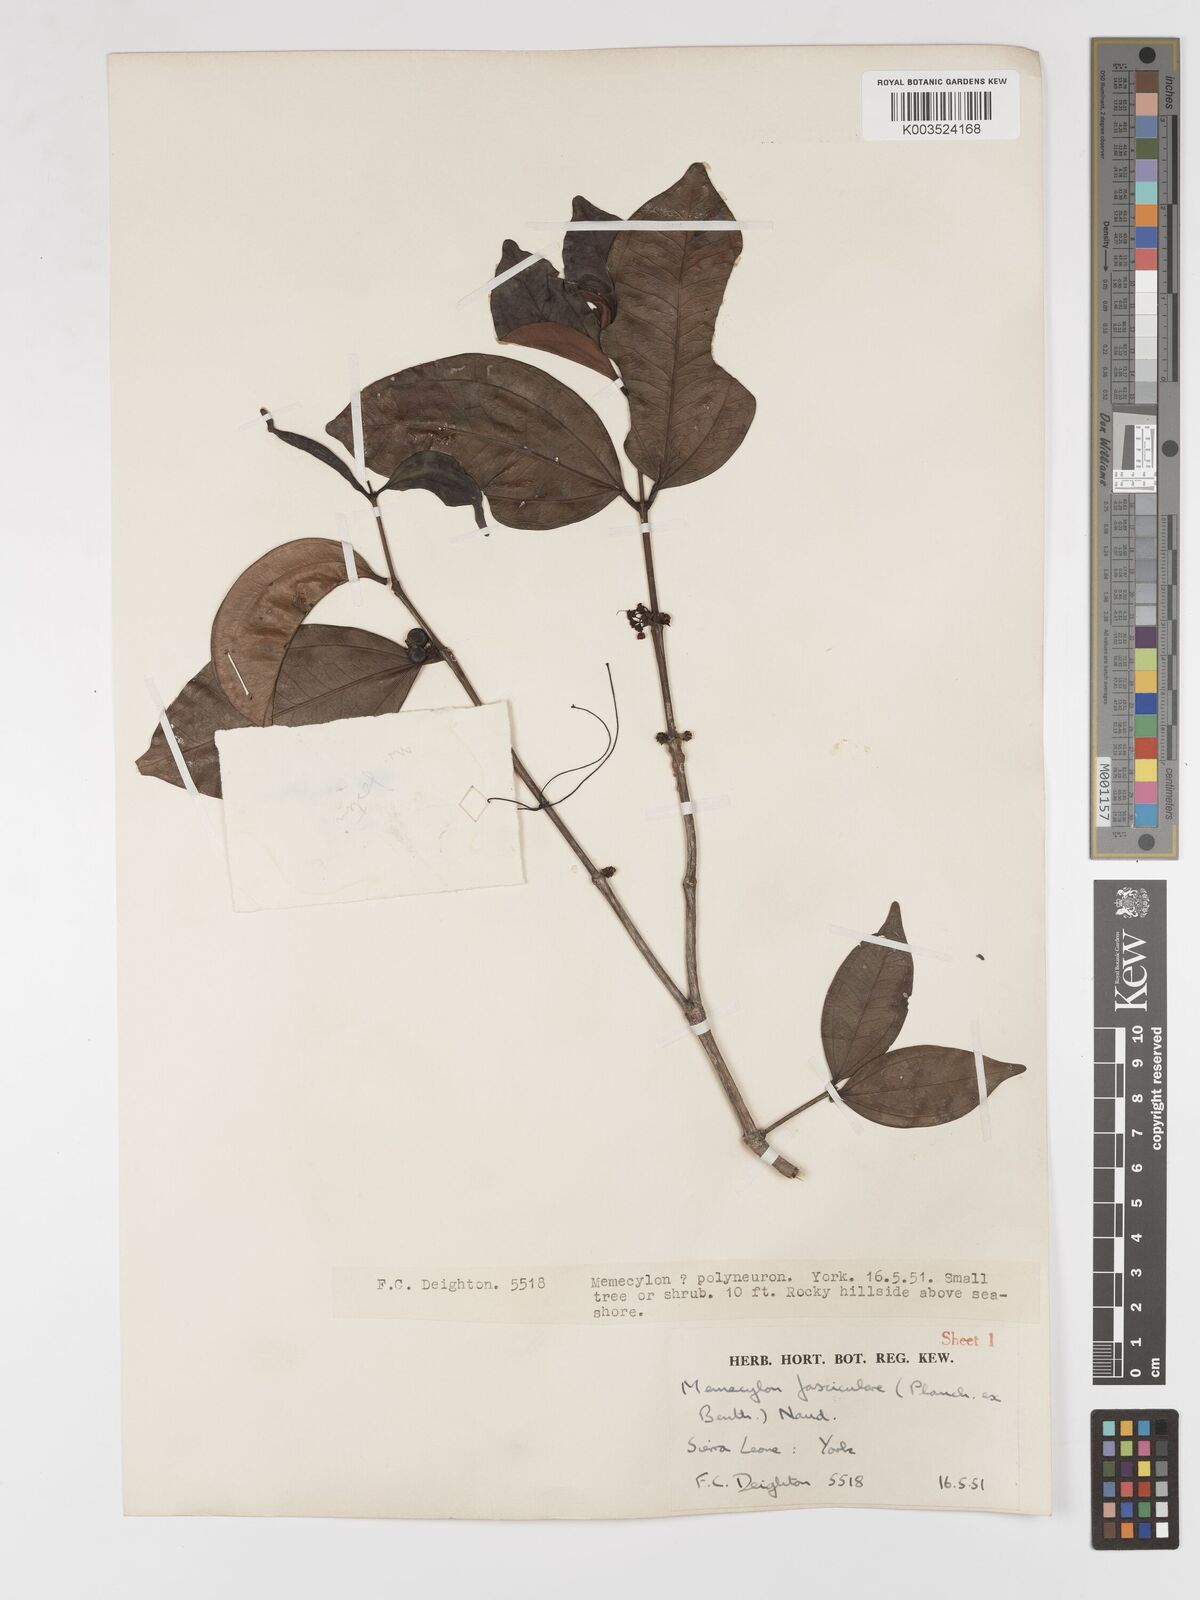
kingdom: Plantae
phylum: Tracheophyta
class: Magnoliopsida
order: Myrtales
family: Melastomataceae
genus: Warneckea
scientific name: Warneckea fascicularis
